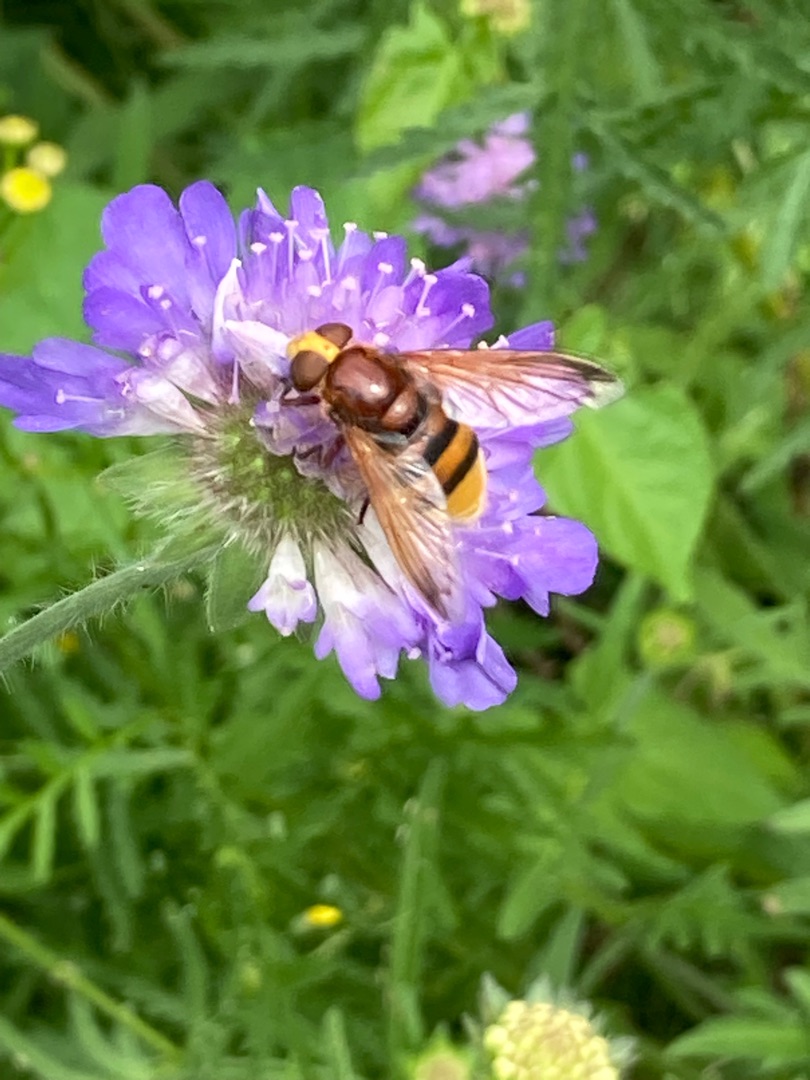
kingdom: Animalia
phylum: Arthropoda
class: Insecta
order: Diptera
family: Syrphidae
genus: Volucella
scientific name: Volucella zonaria
